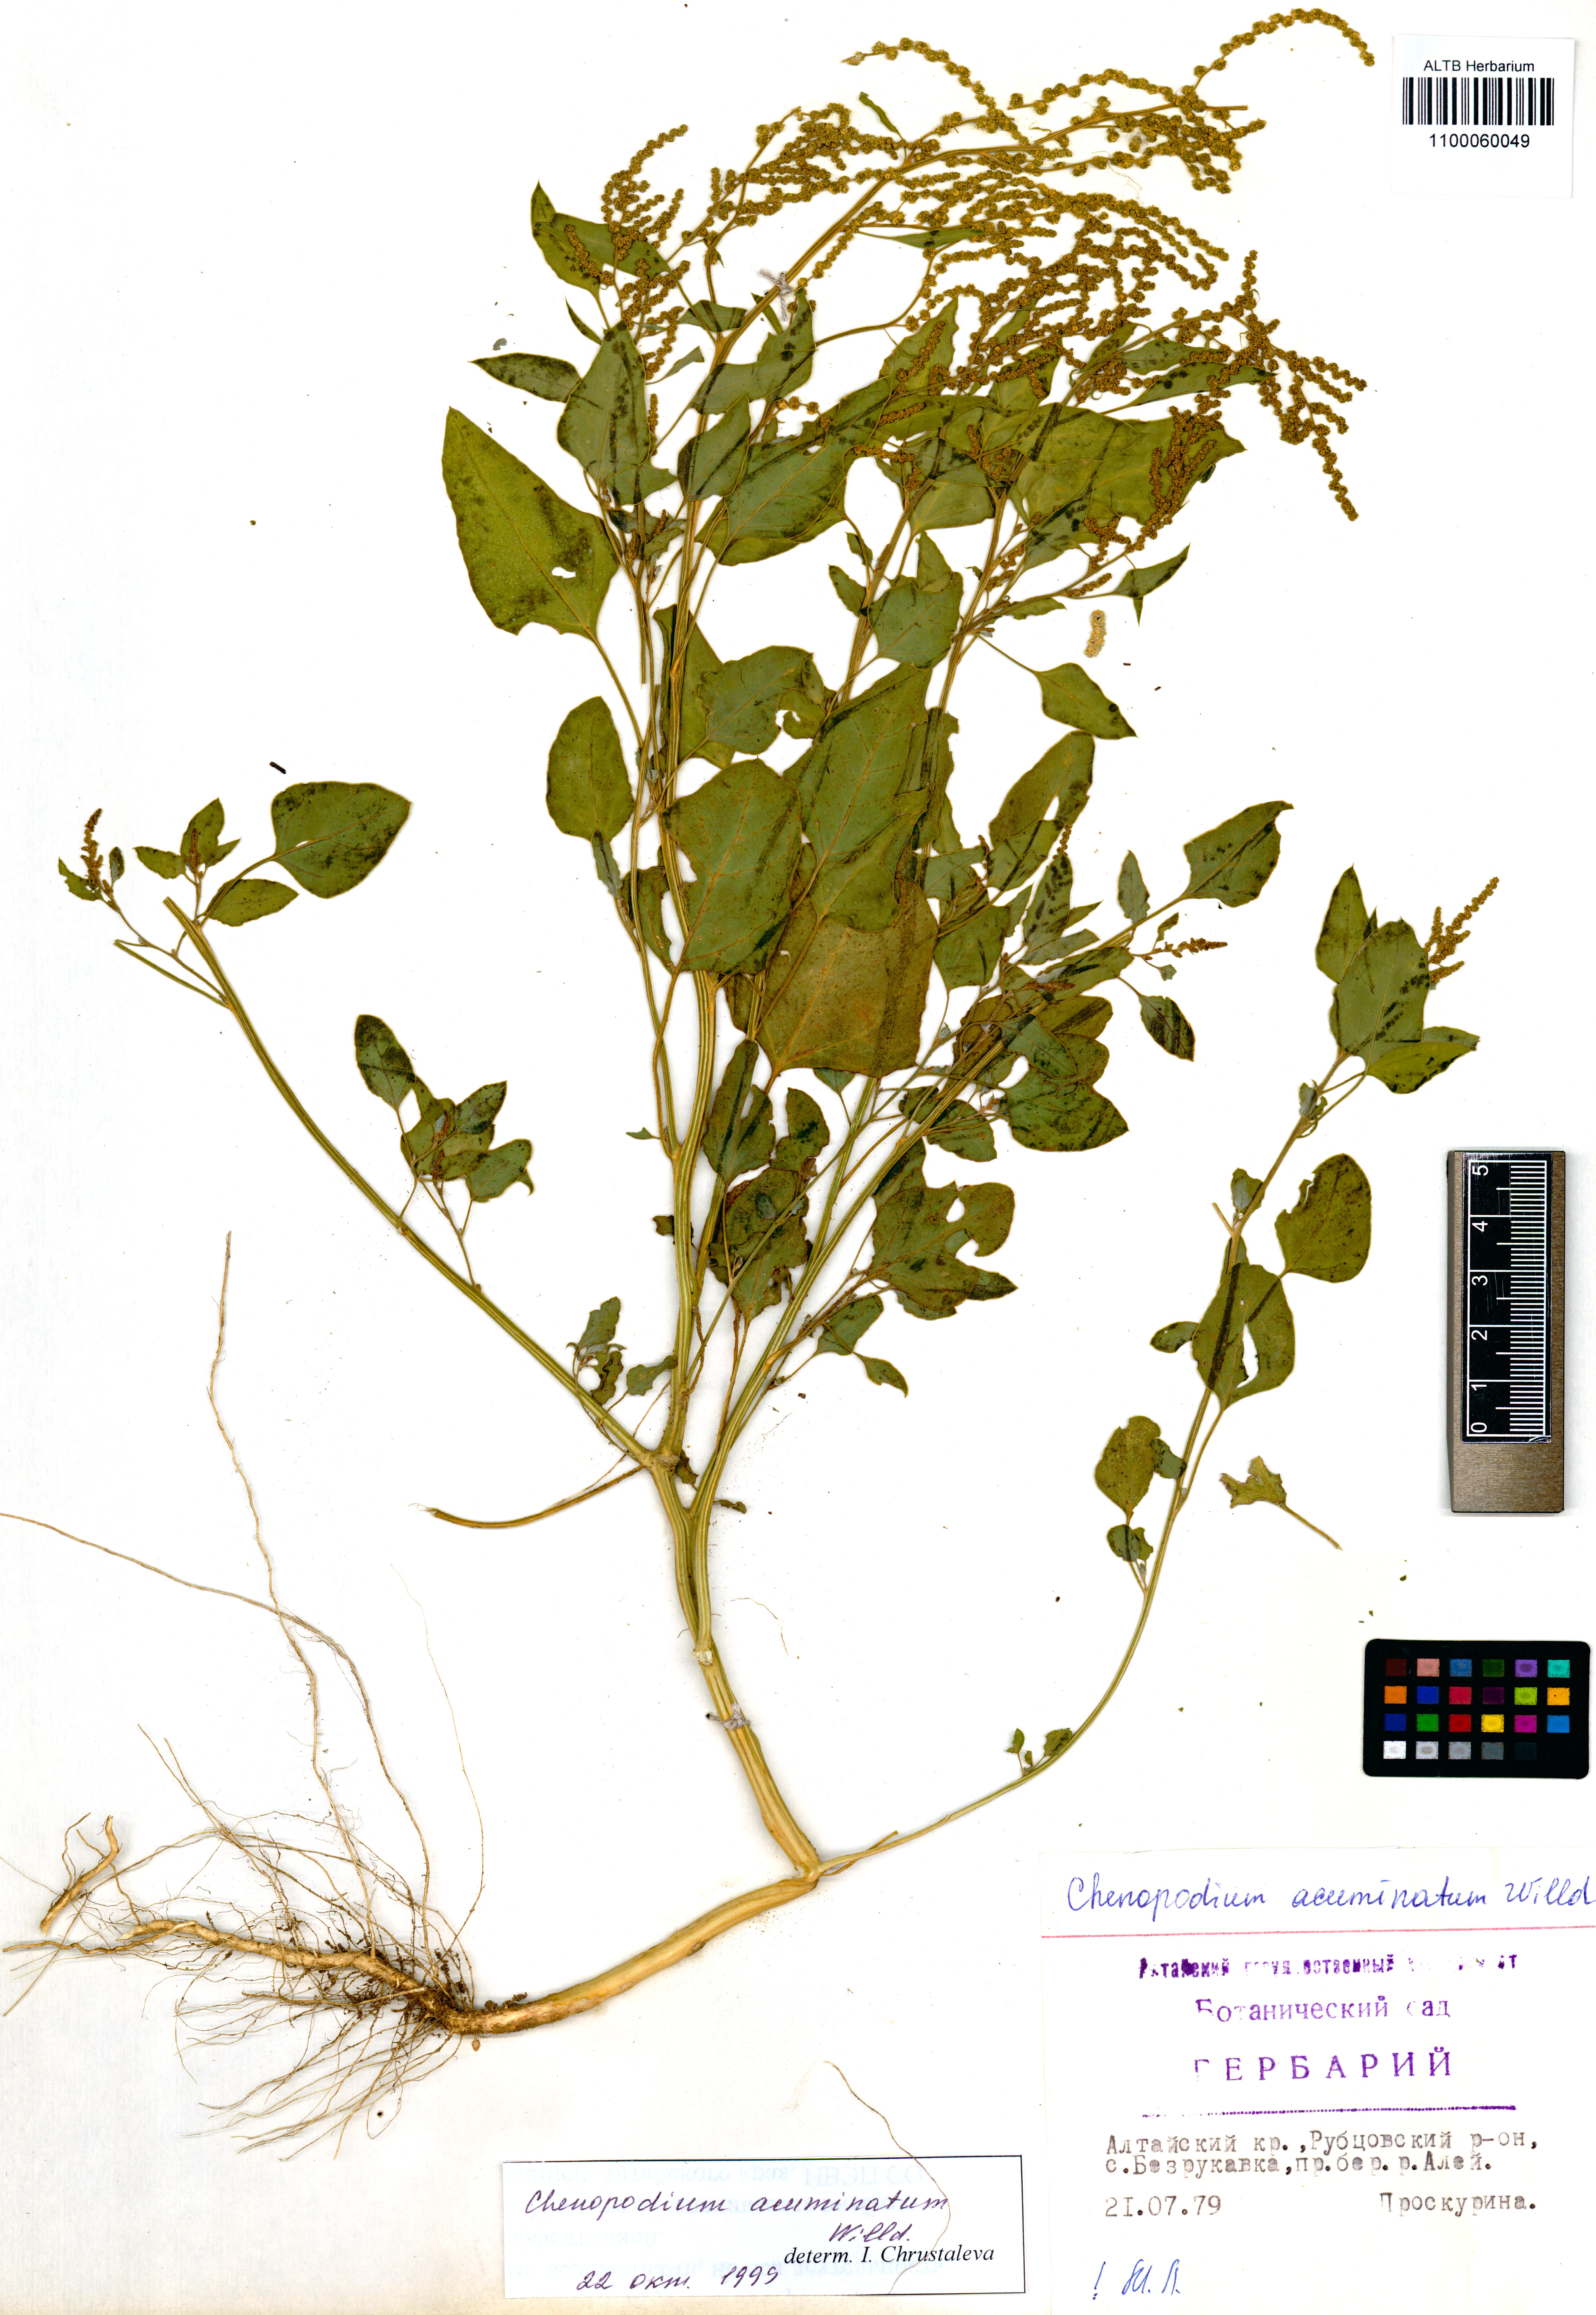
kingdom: Plantae
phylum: Tracheophyta
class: Magnoliopsida
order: Caryophyllales
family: Amaranthaceae
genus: Chenopodium
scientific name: Chenopodium acuminatum
